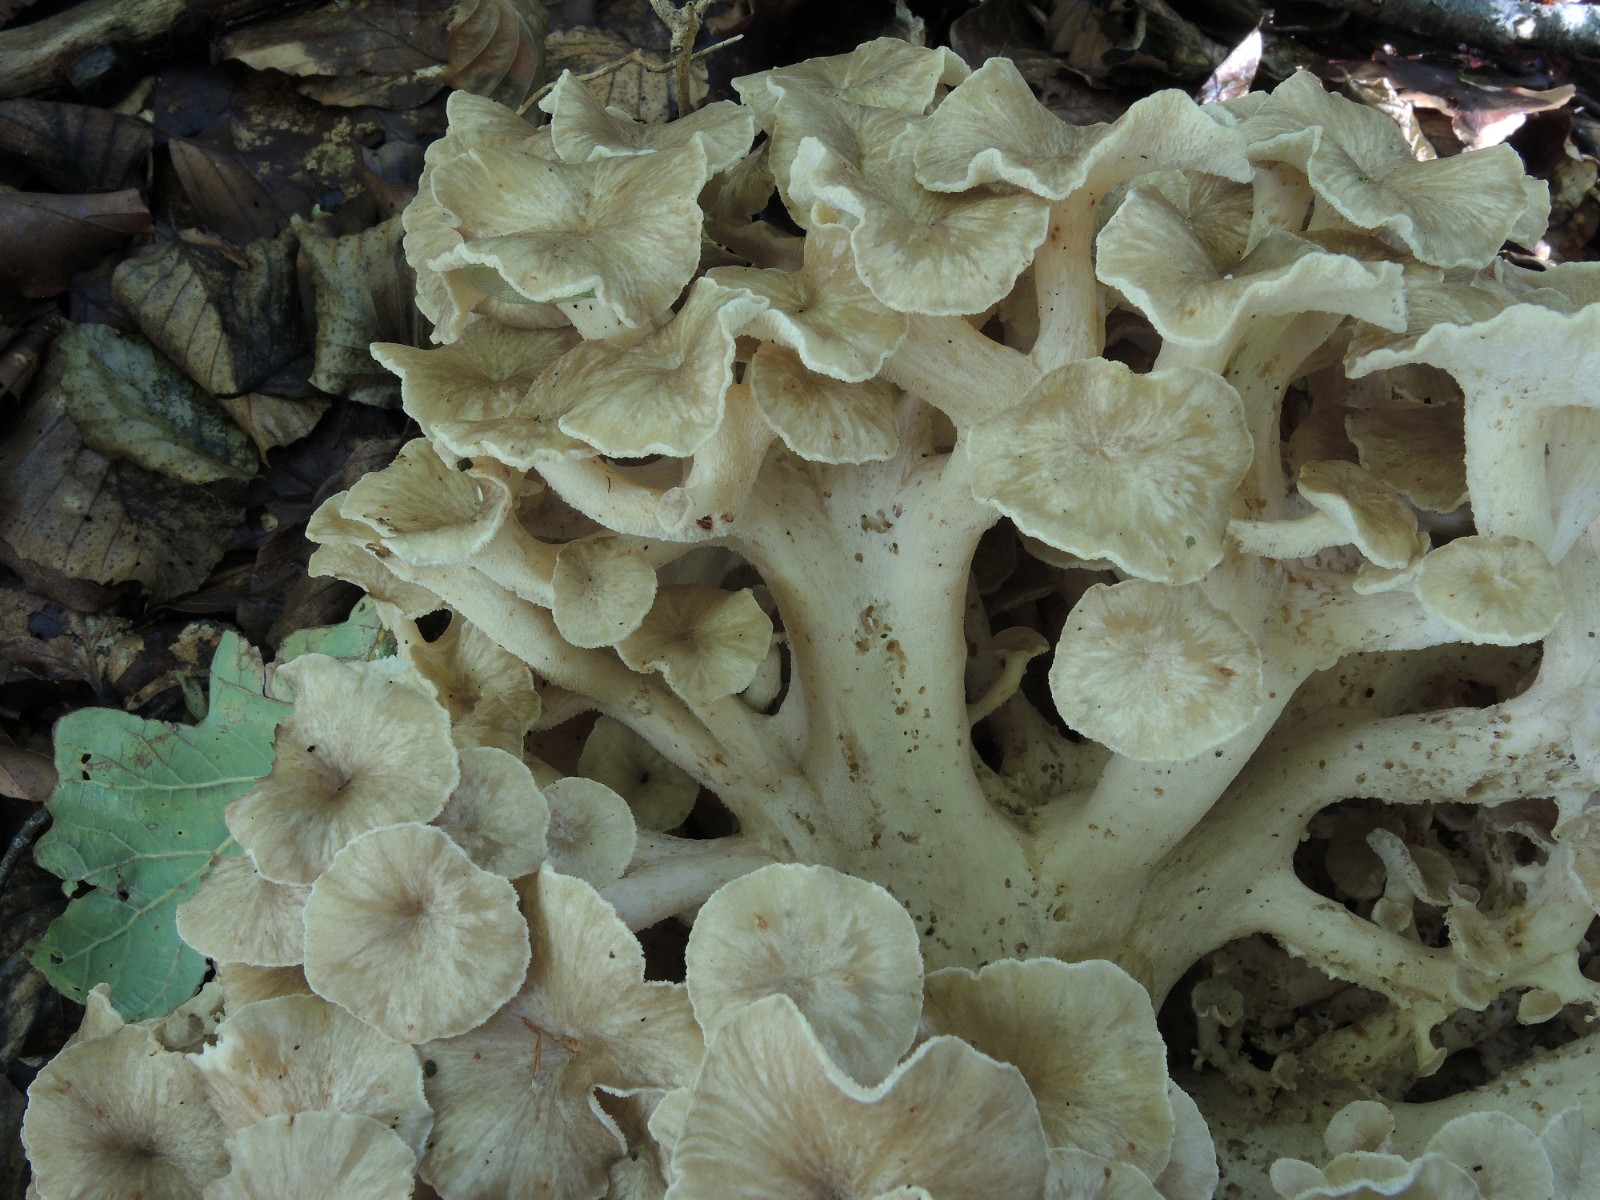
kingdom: Fungi
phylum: Basidiomycota
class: Agaricomycetes
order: Polyporales
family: Polyporaceae
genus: Polyporus
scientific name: Polyporus umbellatus
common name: skærmformet stilkporesvamp
